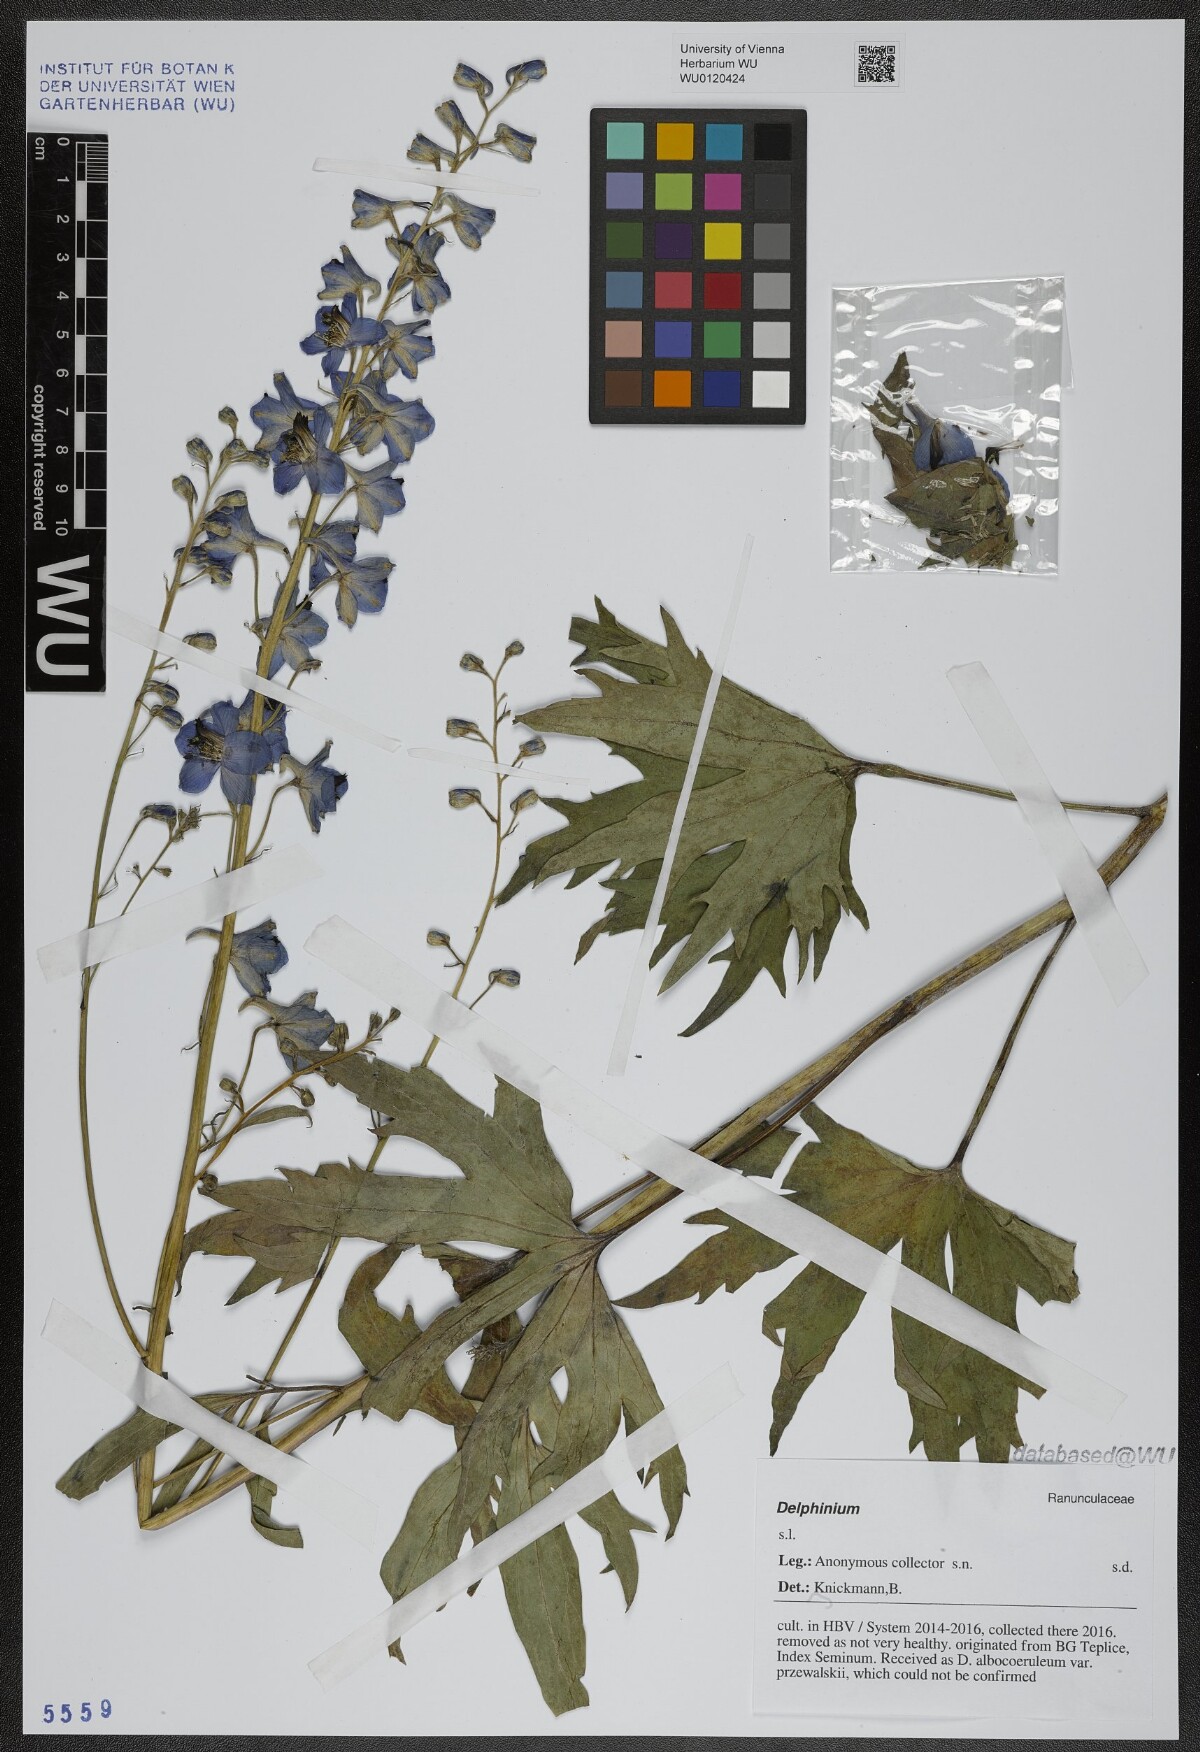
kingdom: Plantae
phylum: Tracheophyta
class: Magnoliopsida
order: Ranunculales
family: Ranunculaceae
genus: Delphinium
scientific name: Delphinium
